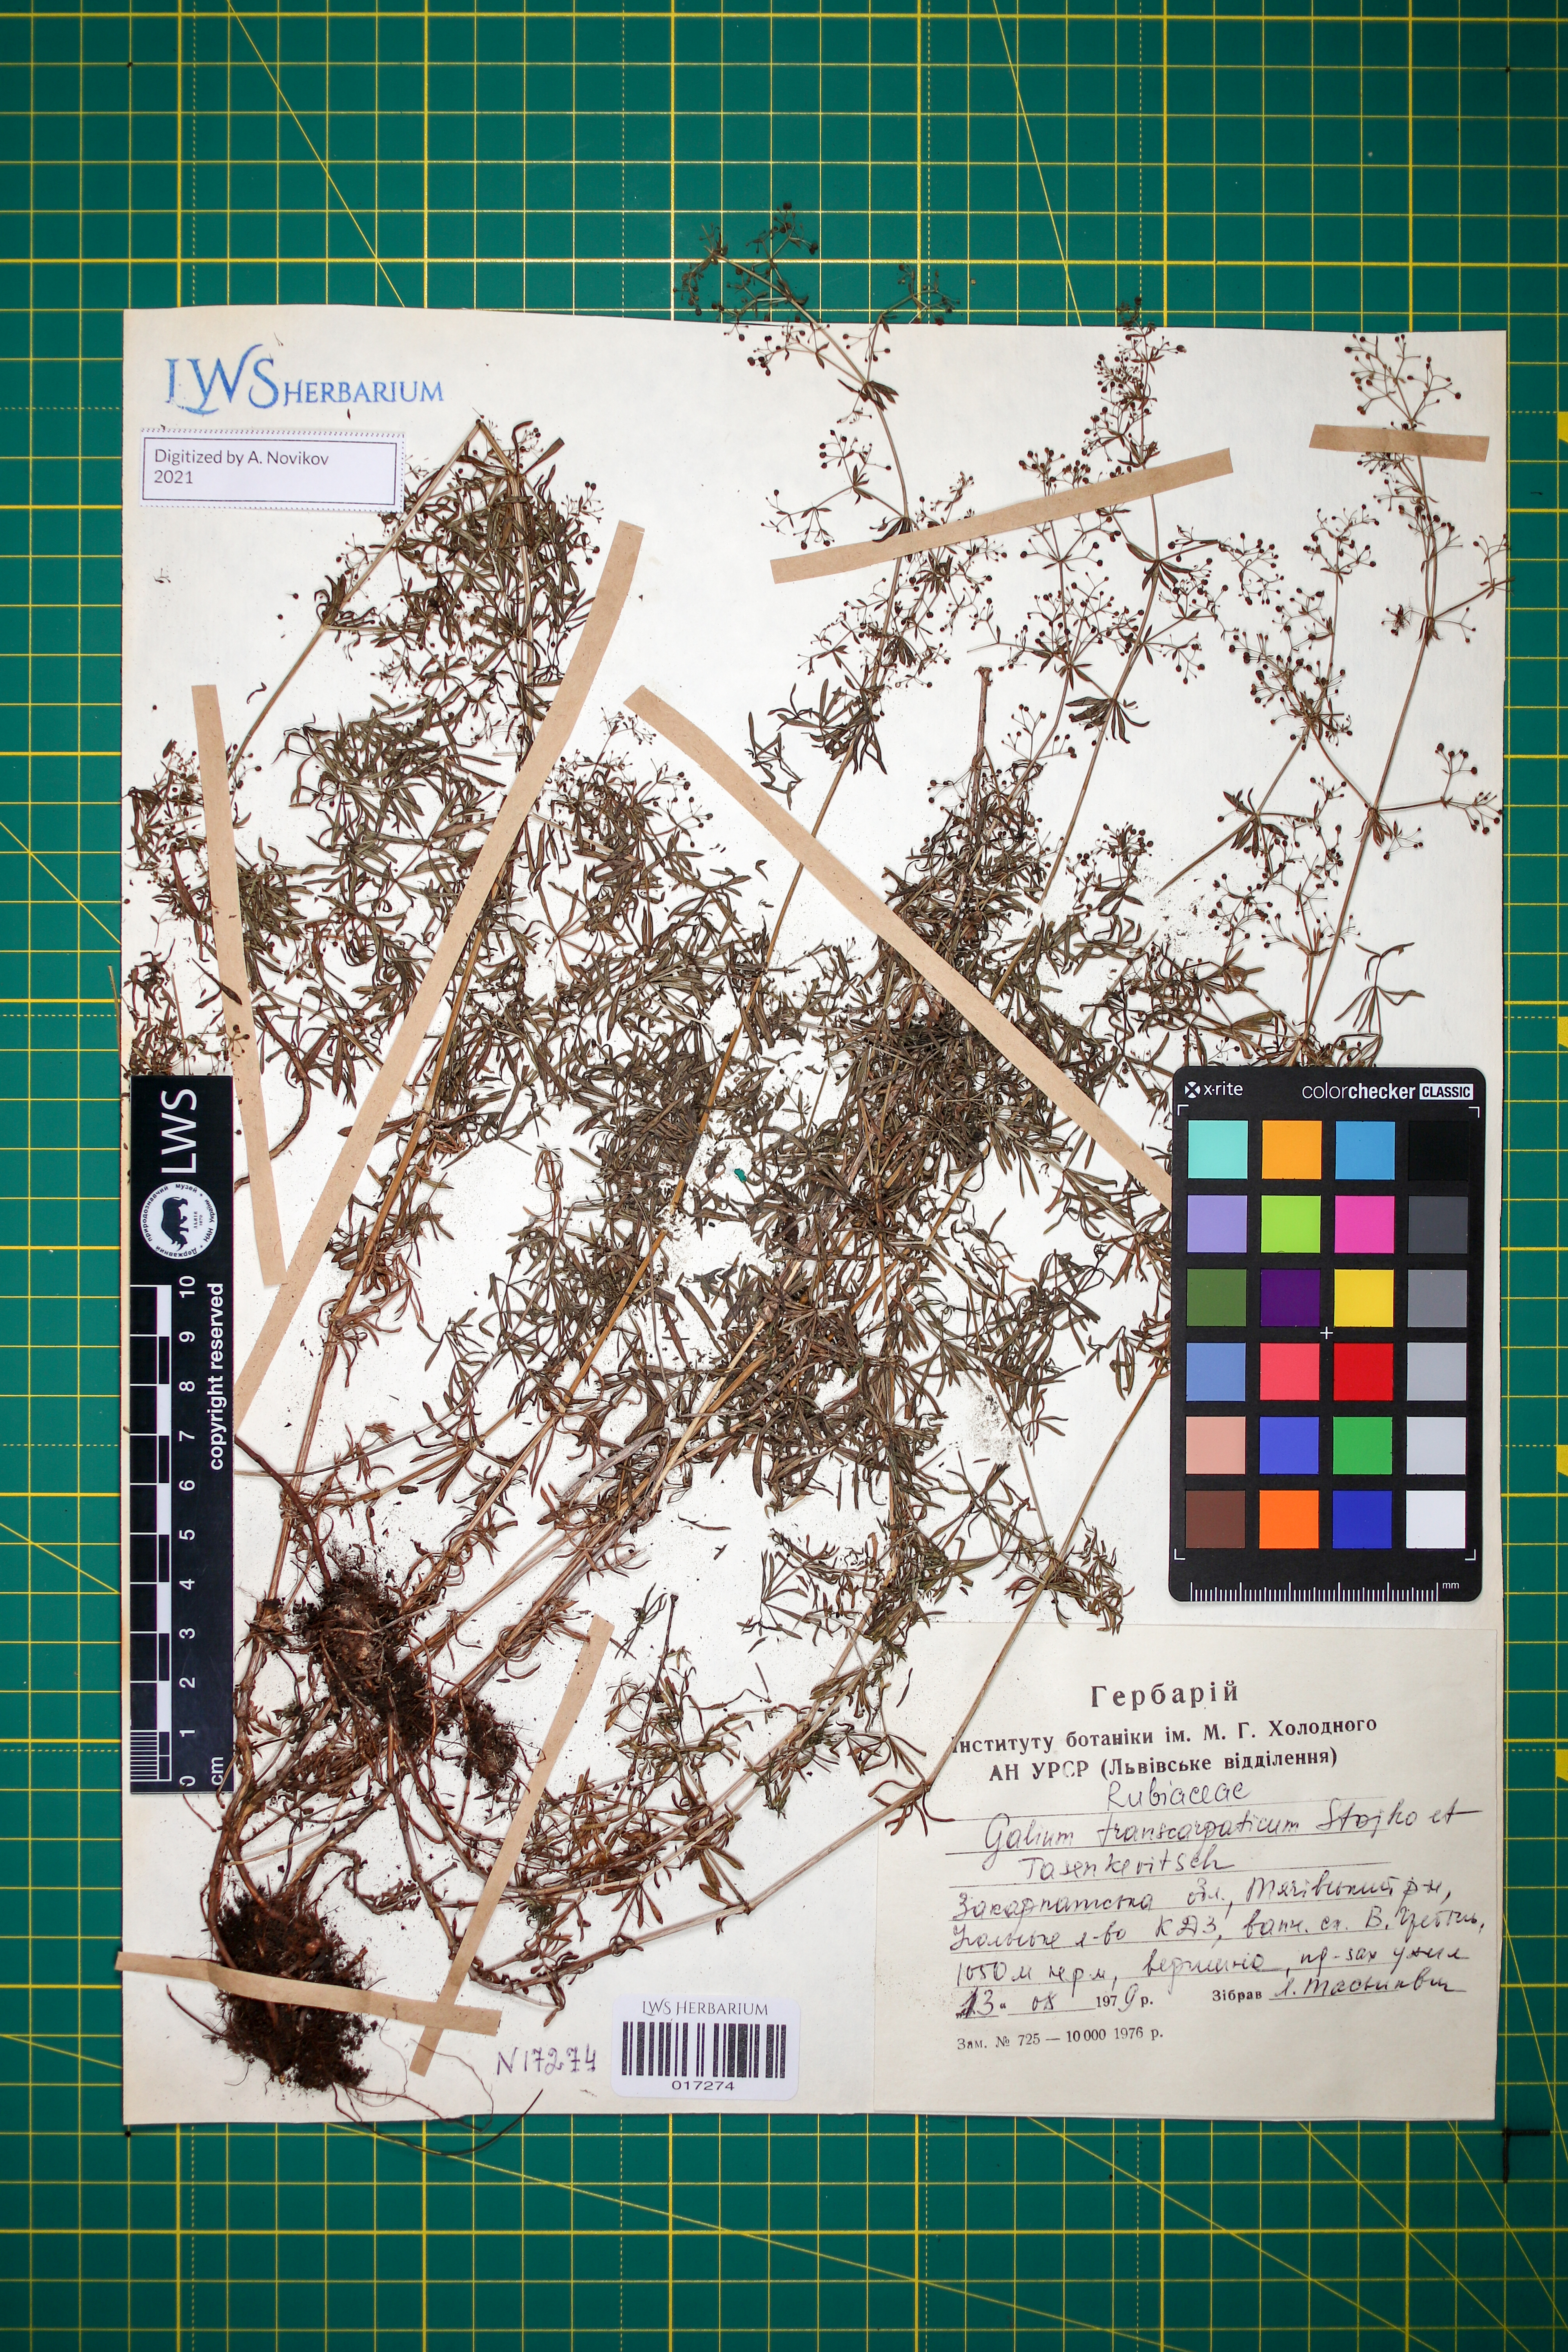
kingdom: Plantae
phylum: Tracheophyta
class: Magnoliopsida
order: Gentianales
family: Rubiaceae
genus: Galium
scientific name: Galium transcarpaticum
